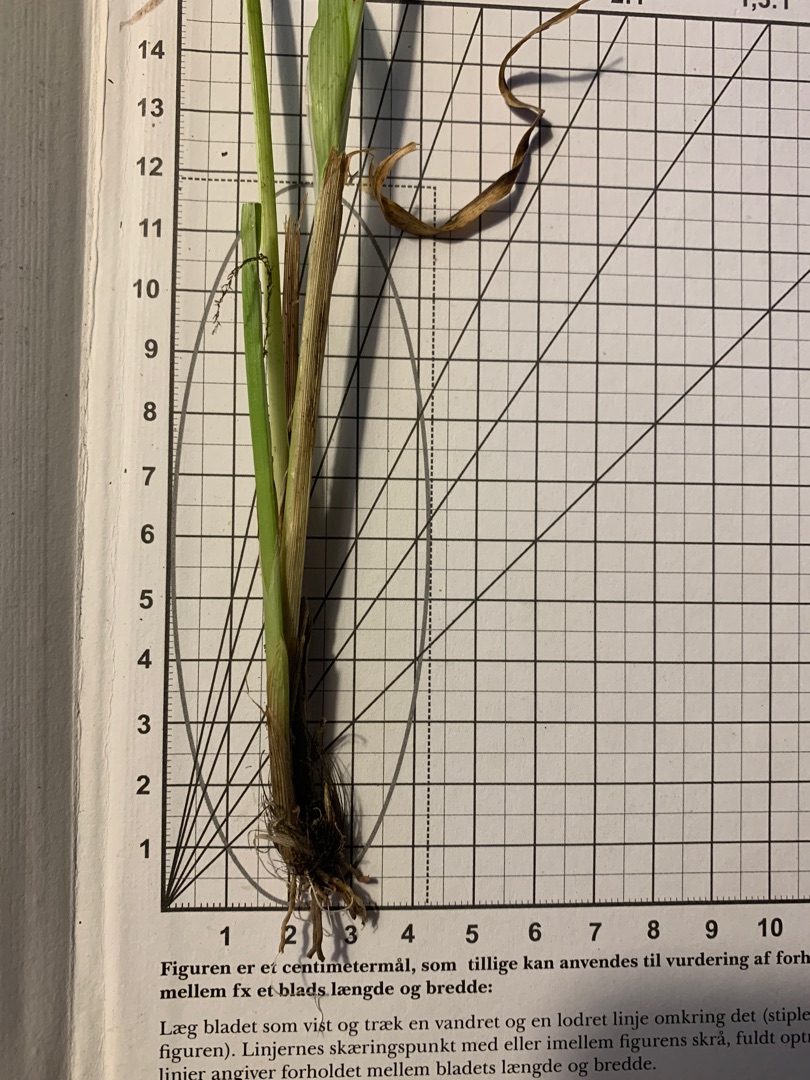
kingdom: Plantae
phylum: Tracheophyta
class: Liliopsida
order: Poales
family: Cyperaceae
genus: Carex
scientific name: Carex otrubae
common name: Sylt-star
